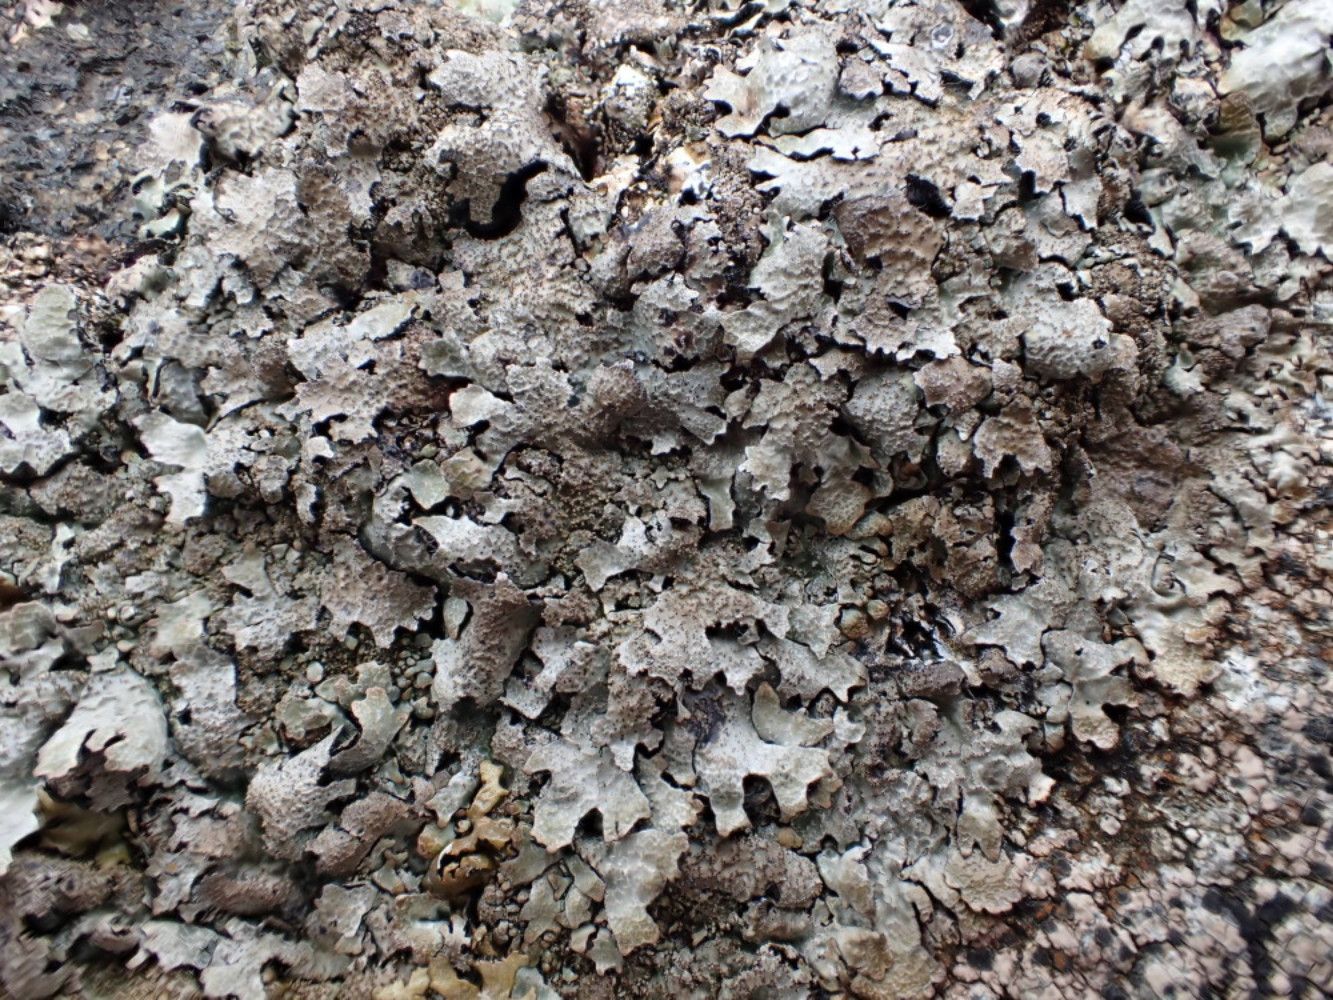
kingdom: Fungi
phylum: Ascomycota
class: Lecanoromycetes
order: Lecanorales
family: Parmeliaceae
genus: Parmelia
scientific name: Parmelia saxatilis
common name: farve-skållav
